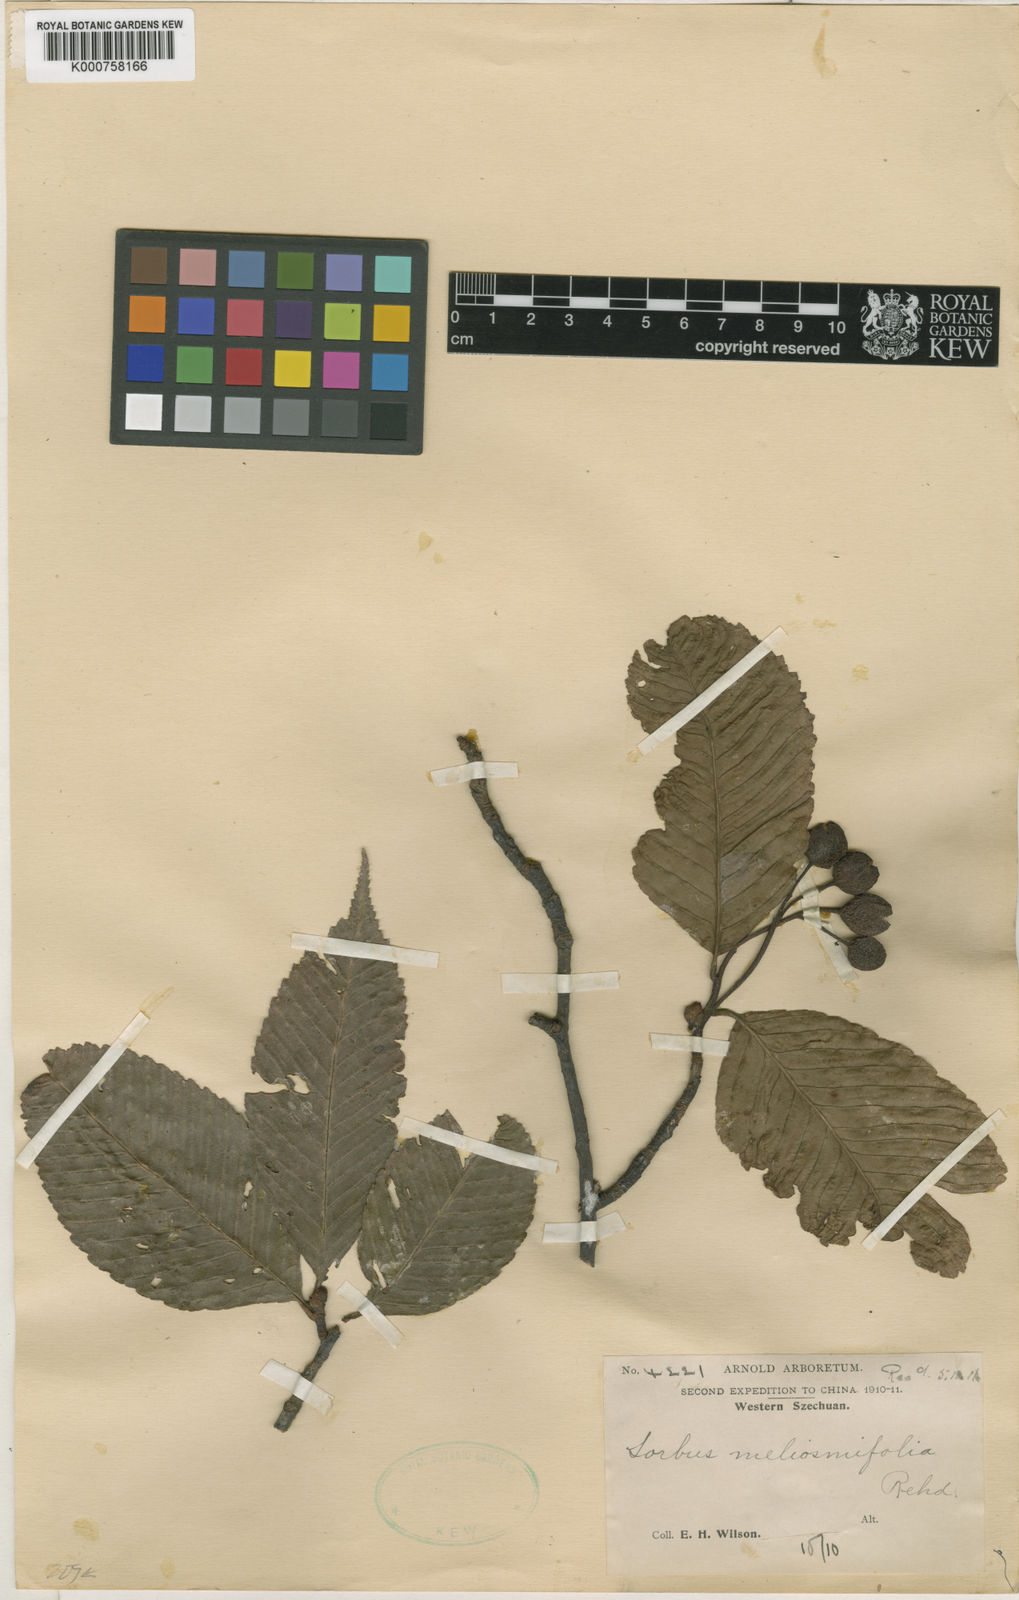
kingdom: Plantae
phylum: Tracheophyta
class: Magnoliopsida
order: Rosales
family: Rosaceae
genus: Sorbus
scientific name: Sorbus meliosmifolia
